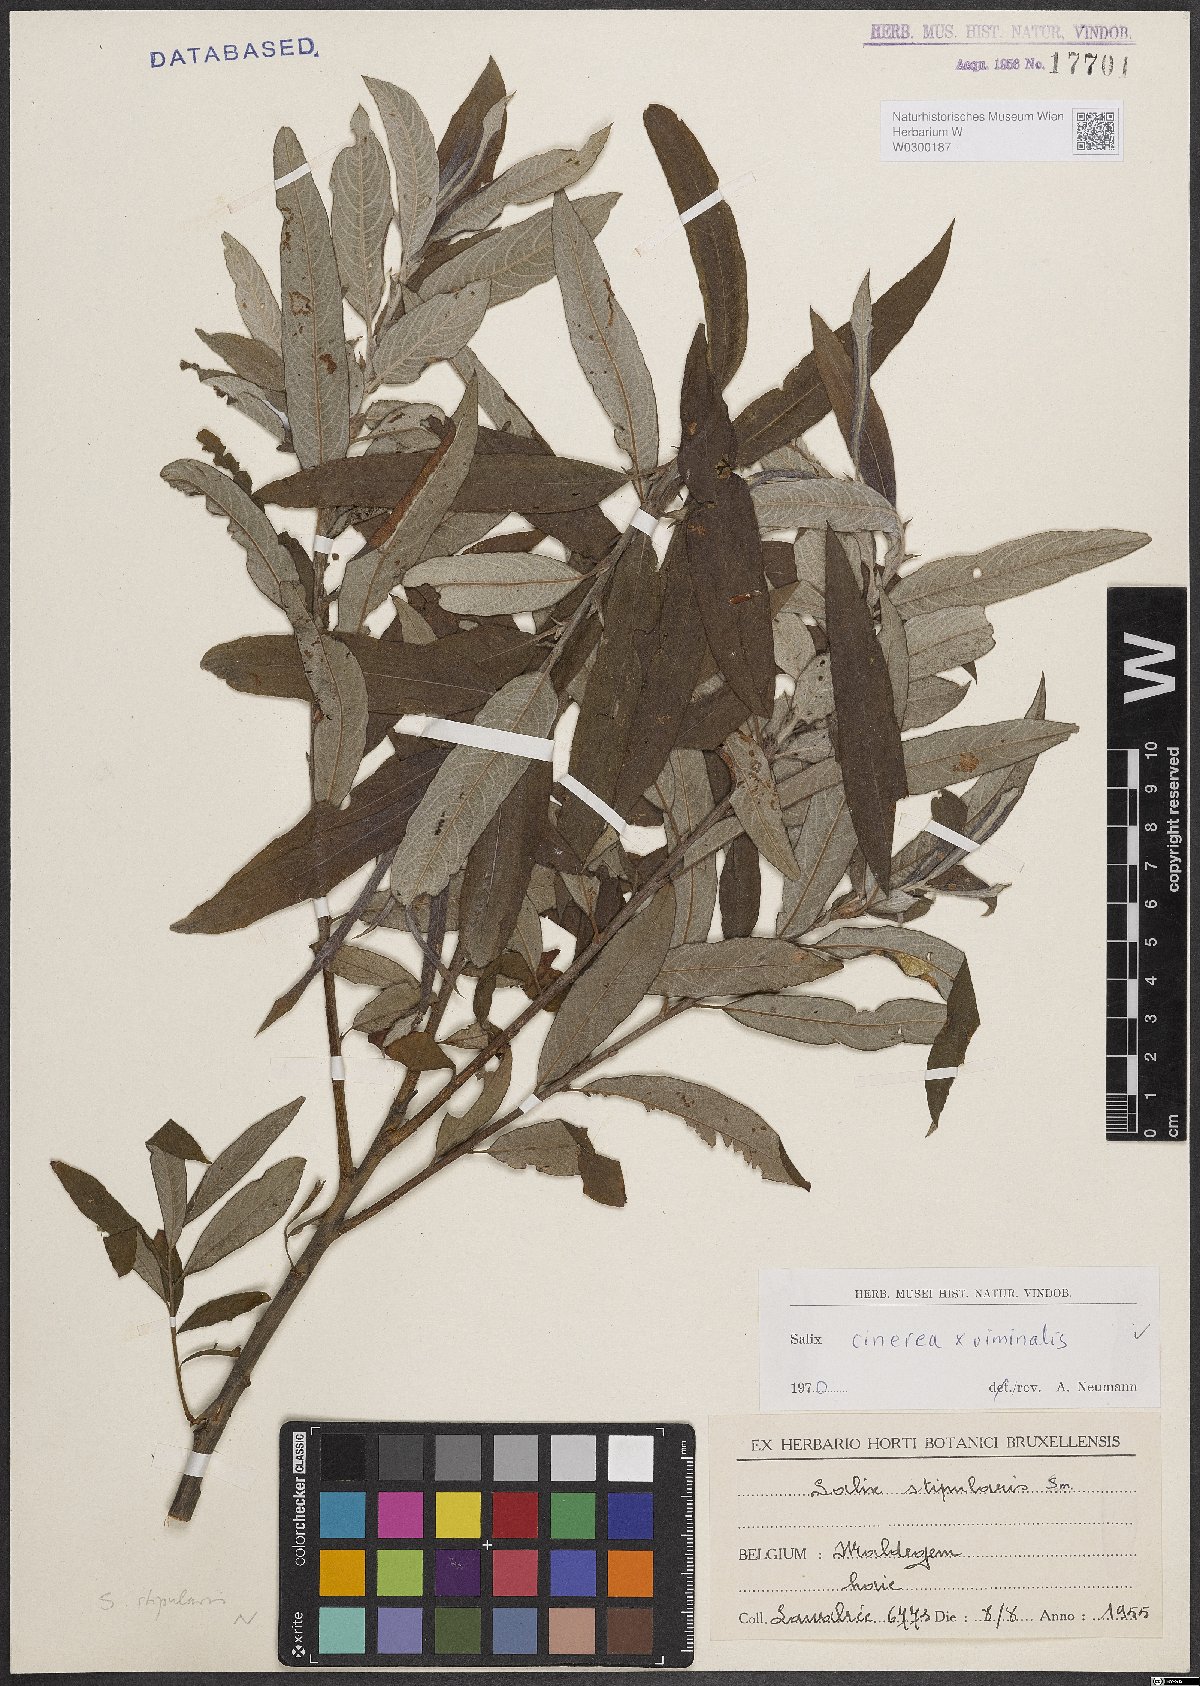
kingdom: Plantae
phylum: Tracheophyta
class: Magnoliopsida
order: Malpighiales
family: Salicaceae
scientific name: Salicaceae
